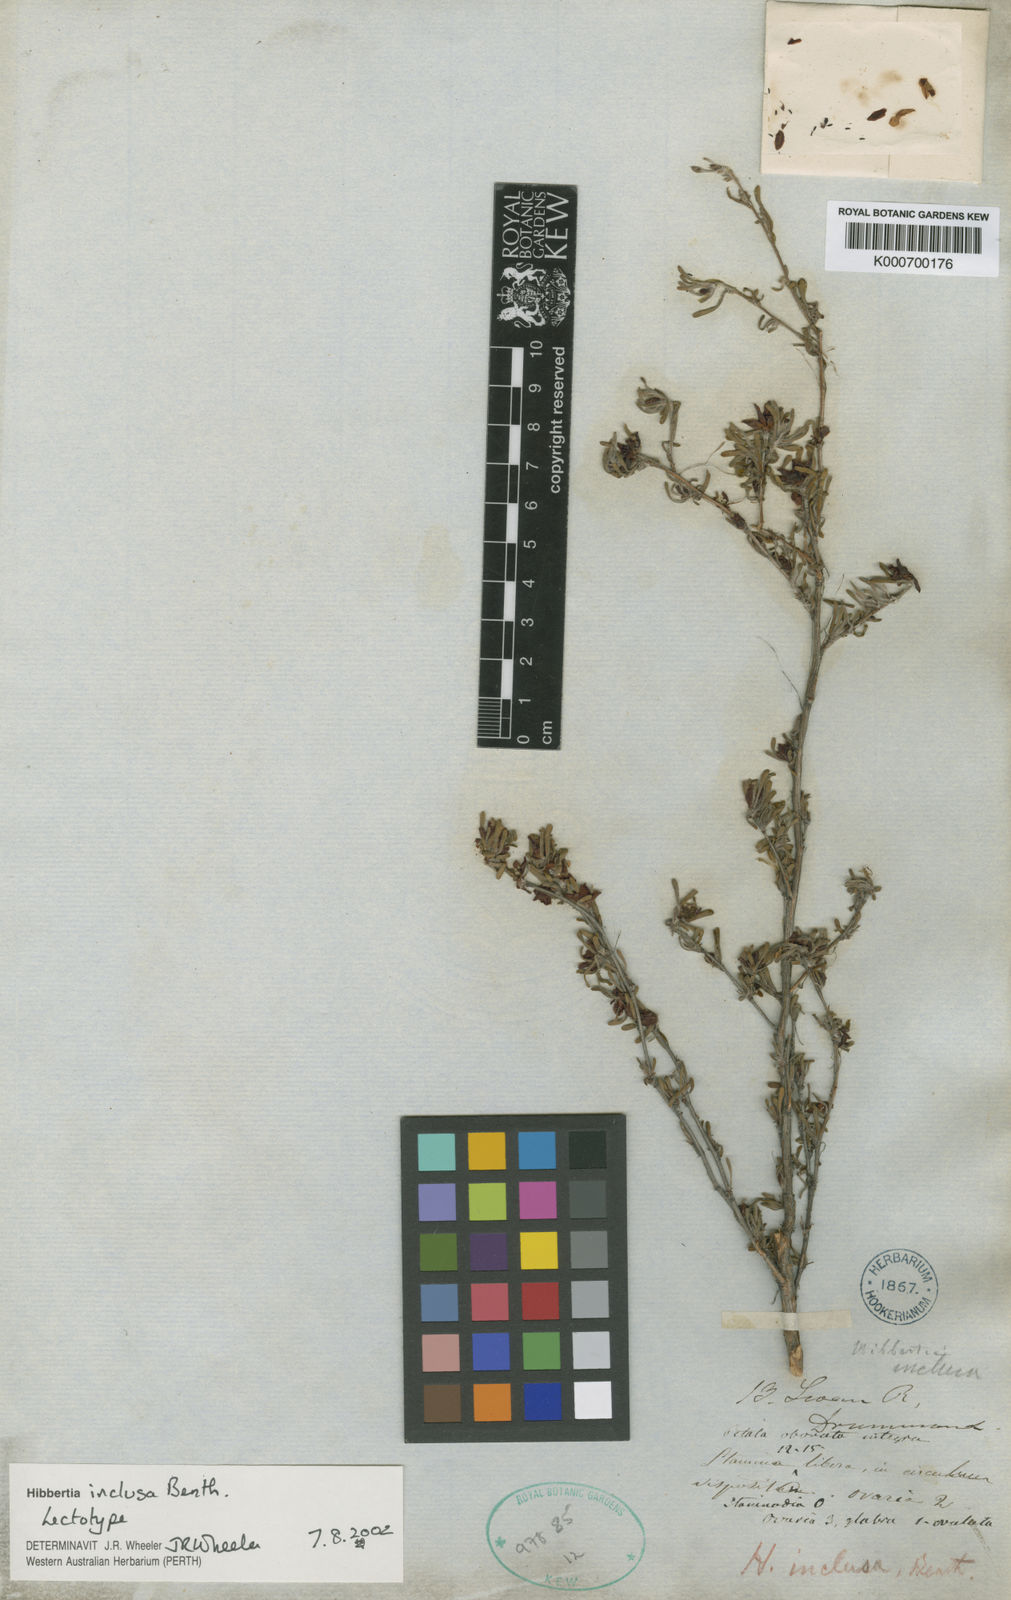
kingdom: Plantae
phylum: Tracheophyta
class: Magnoliopsida
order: Dilleniales
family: Dilleniaceae
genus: Hibbertia
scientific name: Hibbertia inclusa
